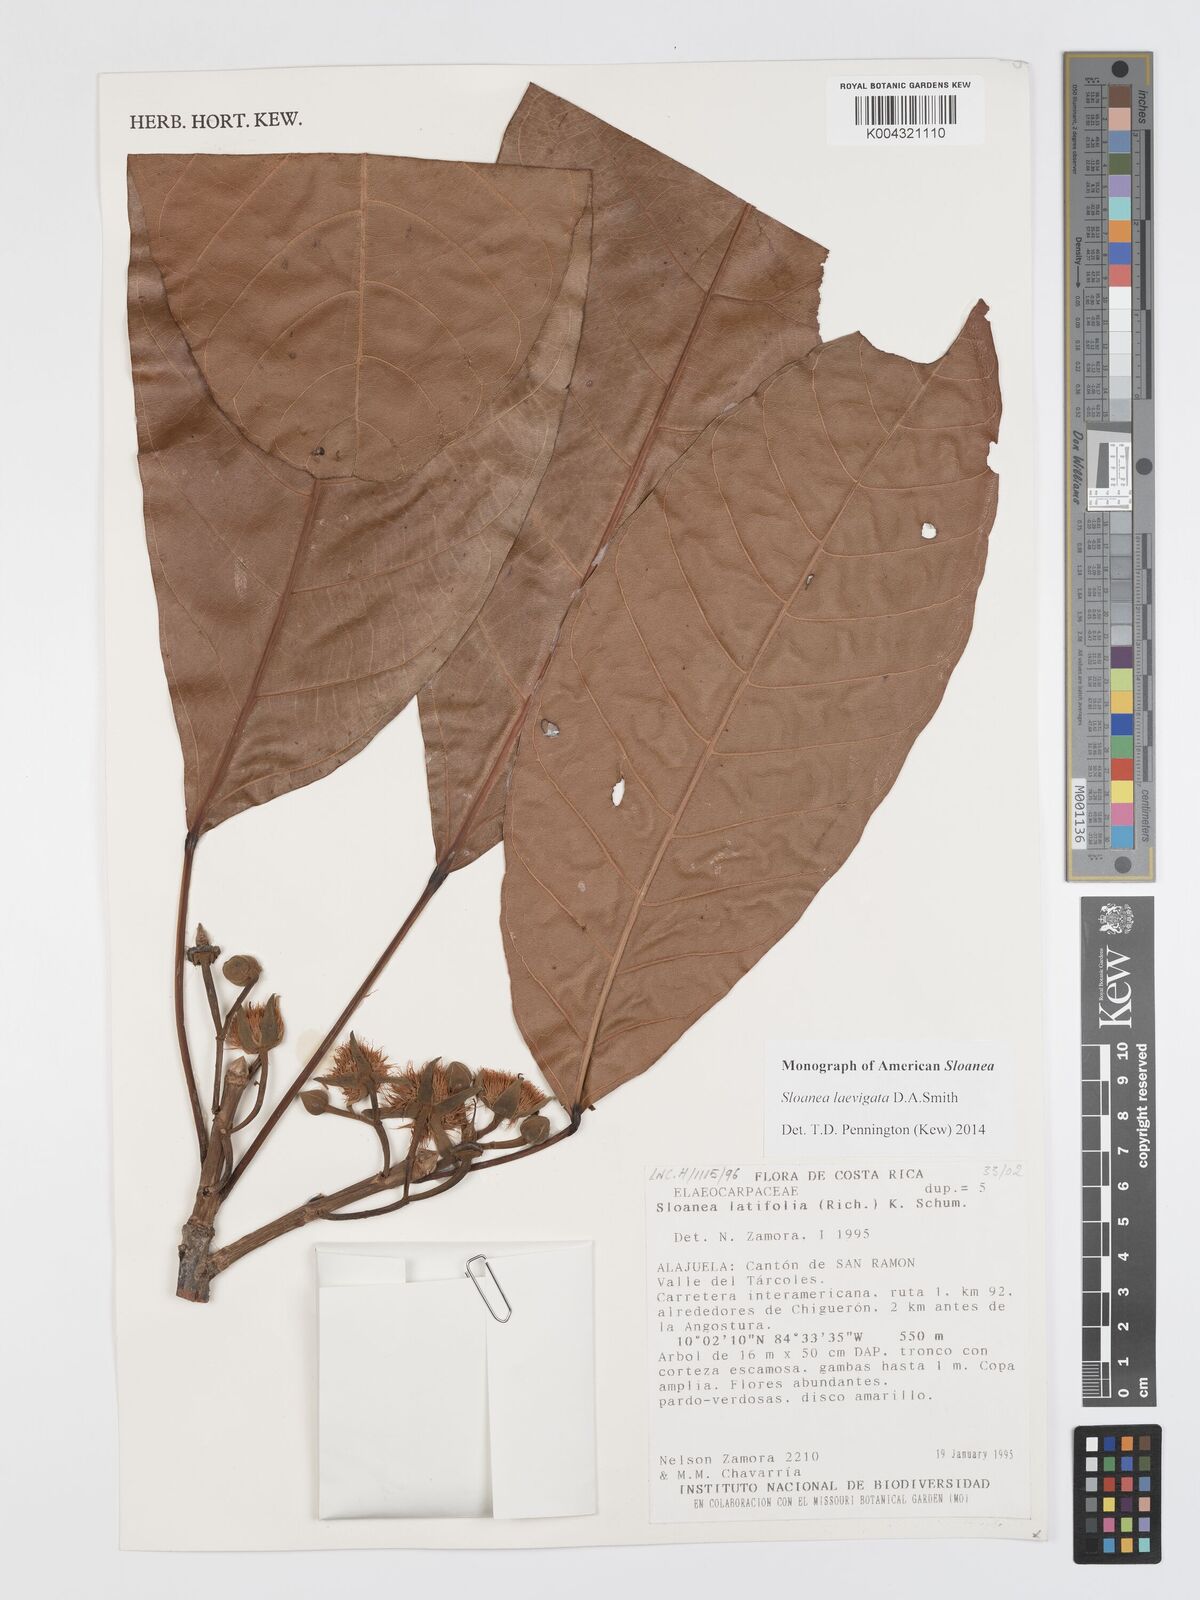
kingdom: Plantae
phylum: Tracheophyta
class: Magnoliopsida
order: Oxalidales
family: Elaeocarpaceae
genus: Sloanea
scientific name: Sloanea laevigata
